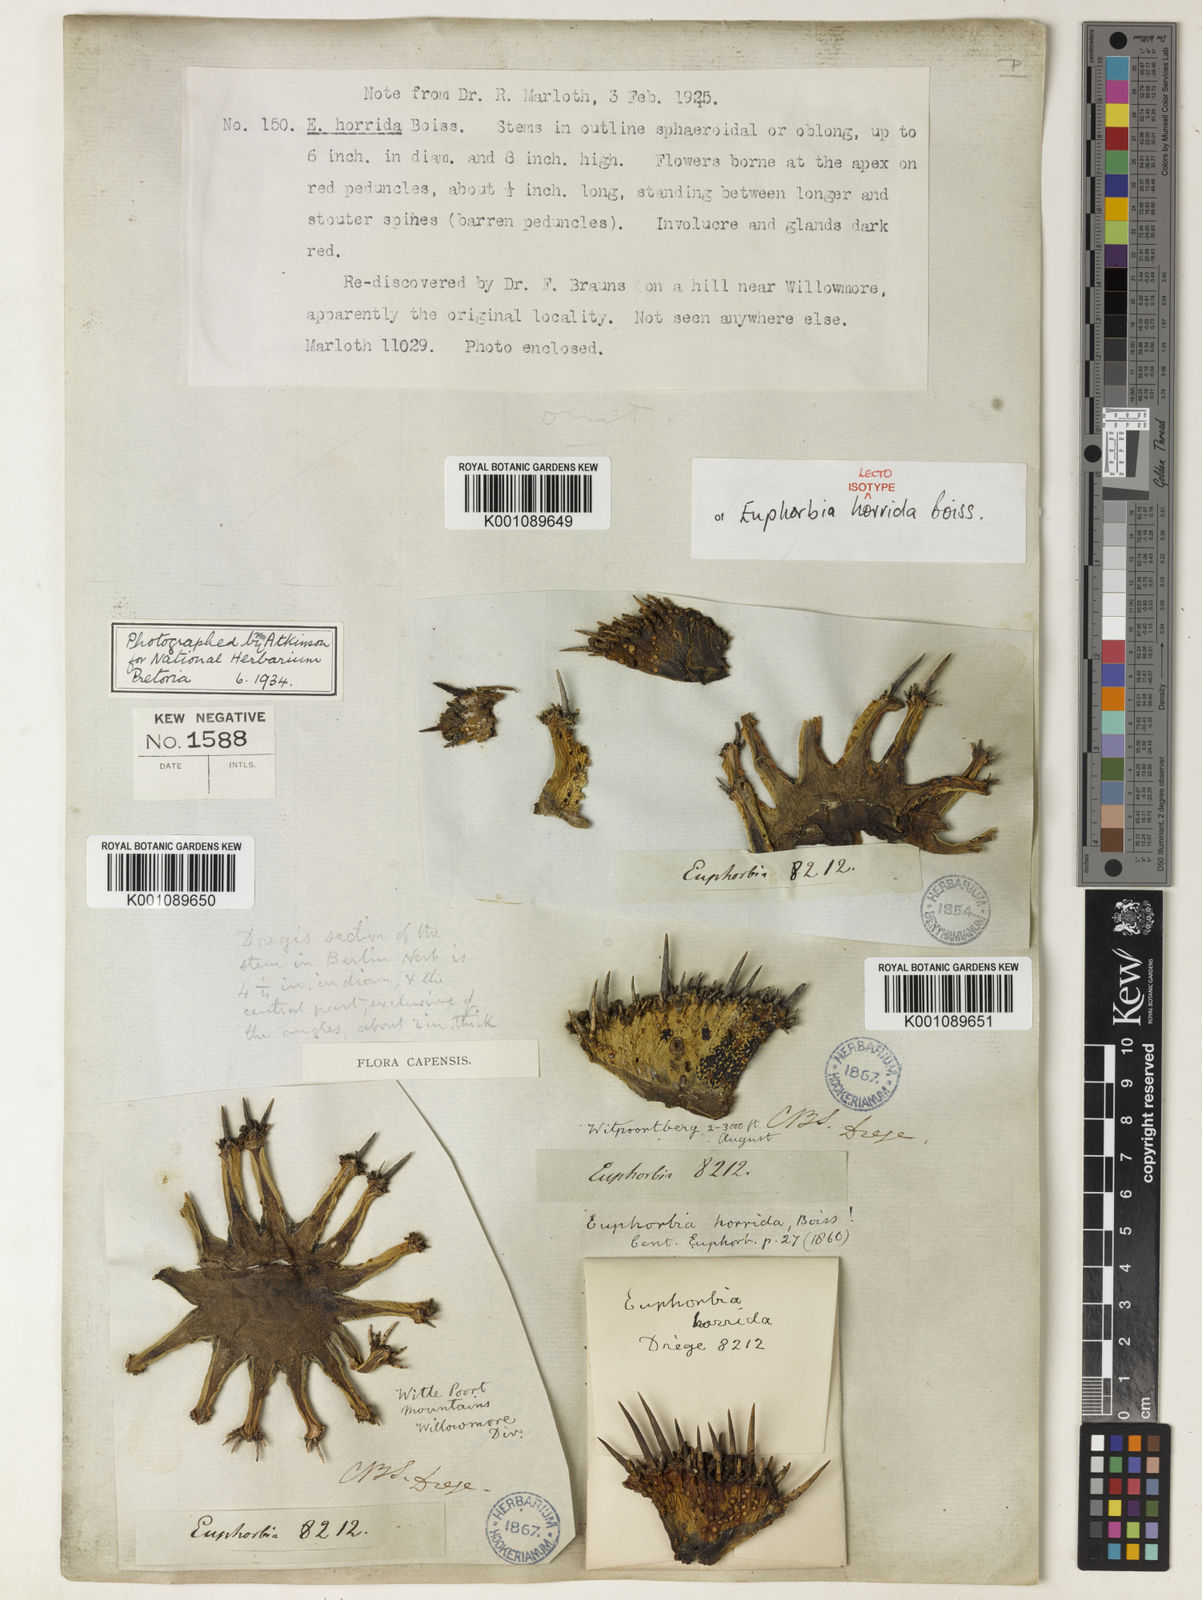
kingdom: Plantae
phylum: Tracheophyta
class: Magnoliopsida
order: Malpighiales
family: Euphorbiaceae
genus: Euphorbia
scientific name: Euphorbia polygona
